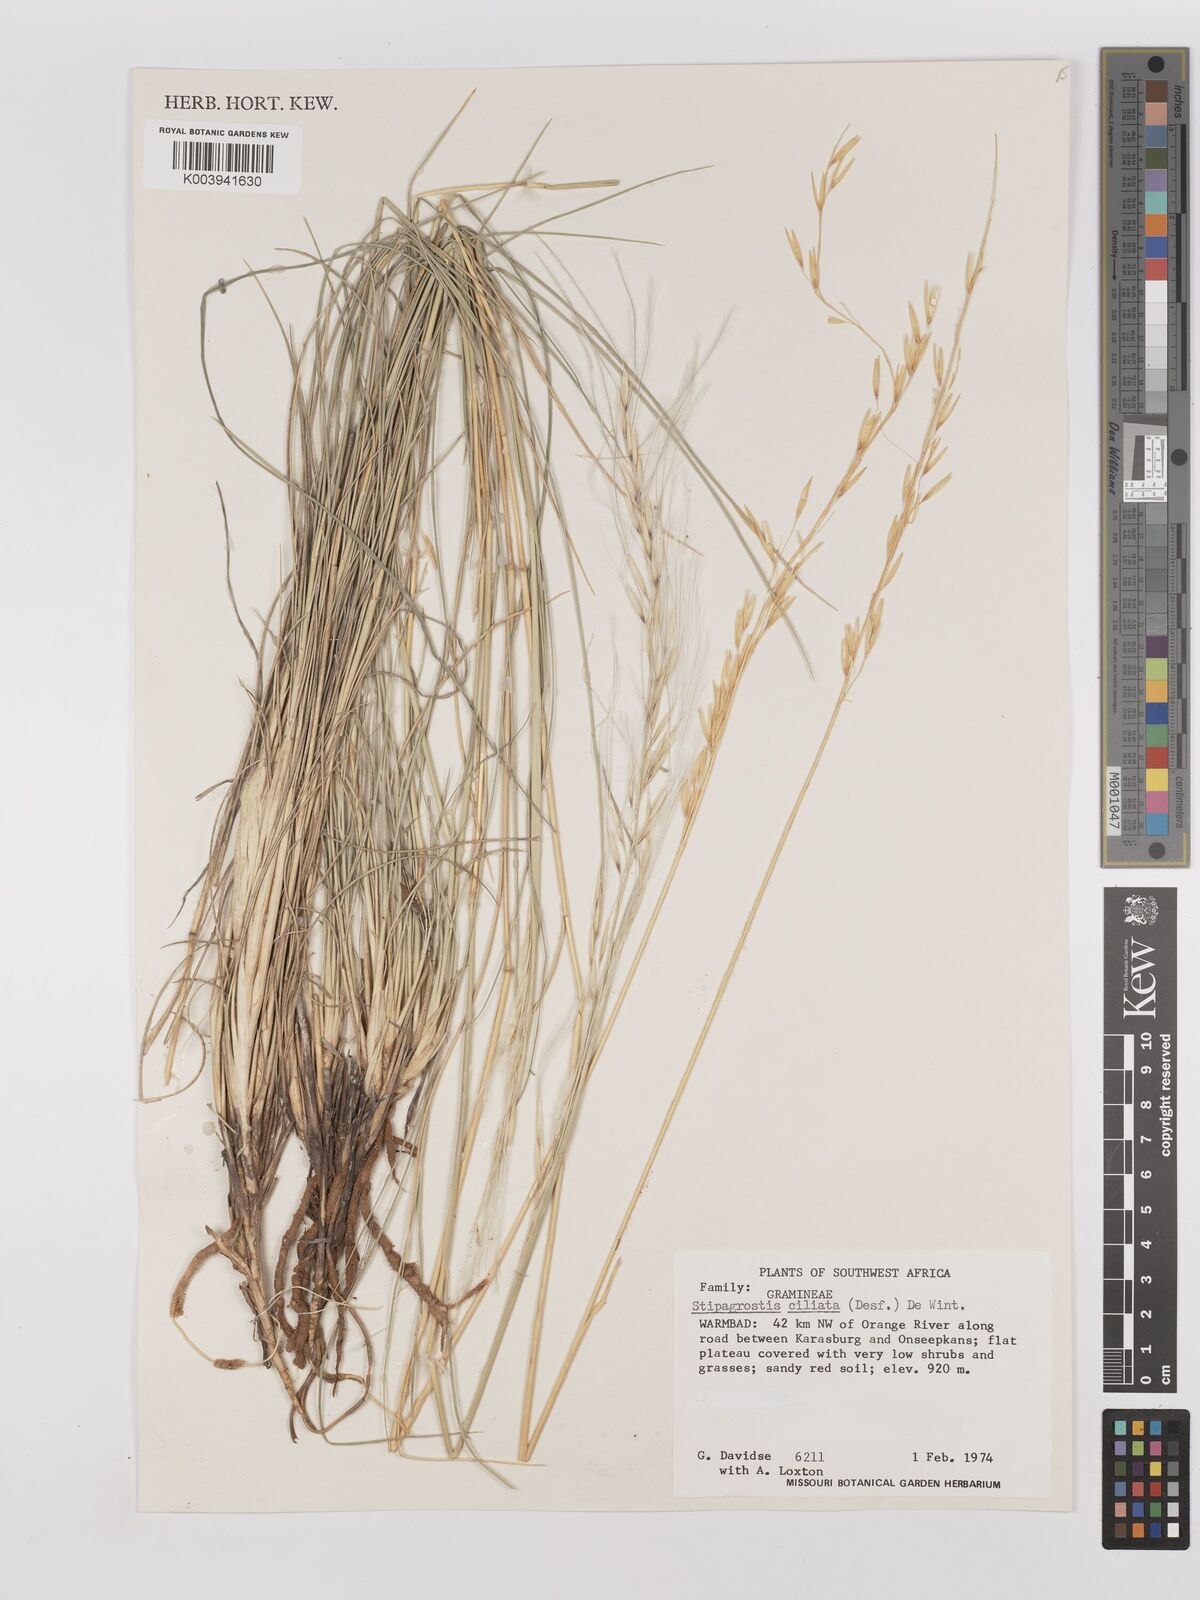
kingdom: Plantae
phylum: Tracheophyta
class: Liliopsida
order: Poales
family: Poaceae
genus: Stipagrostis
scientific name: Stipagrostis ciliata
